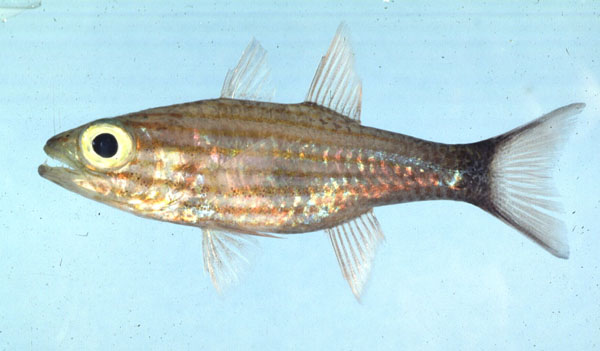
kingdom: Animalia
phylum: Chordata
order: Perciformes
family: Apogonidae
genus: Cheilodipterus
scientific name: Cheilodipterus macrodon
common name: Eight-lined cardinalfish
